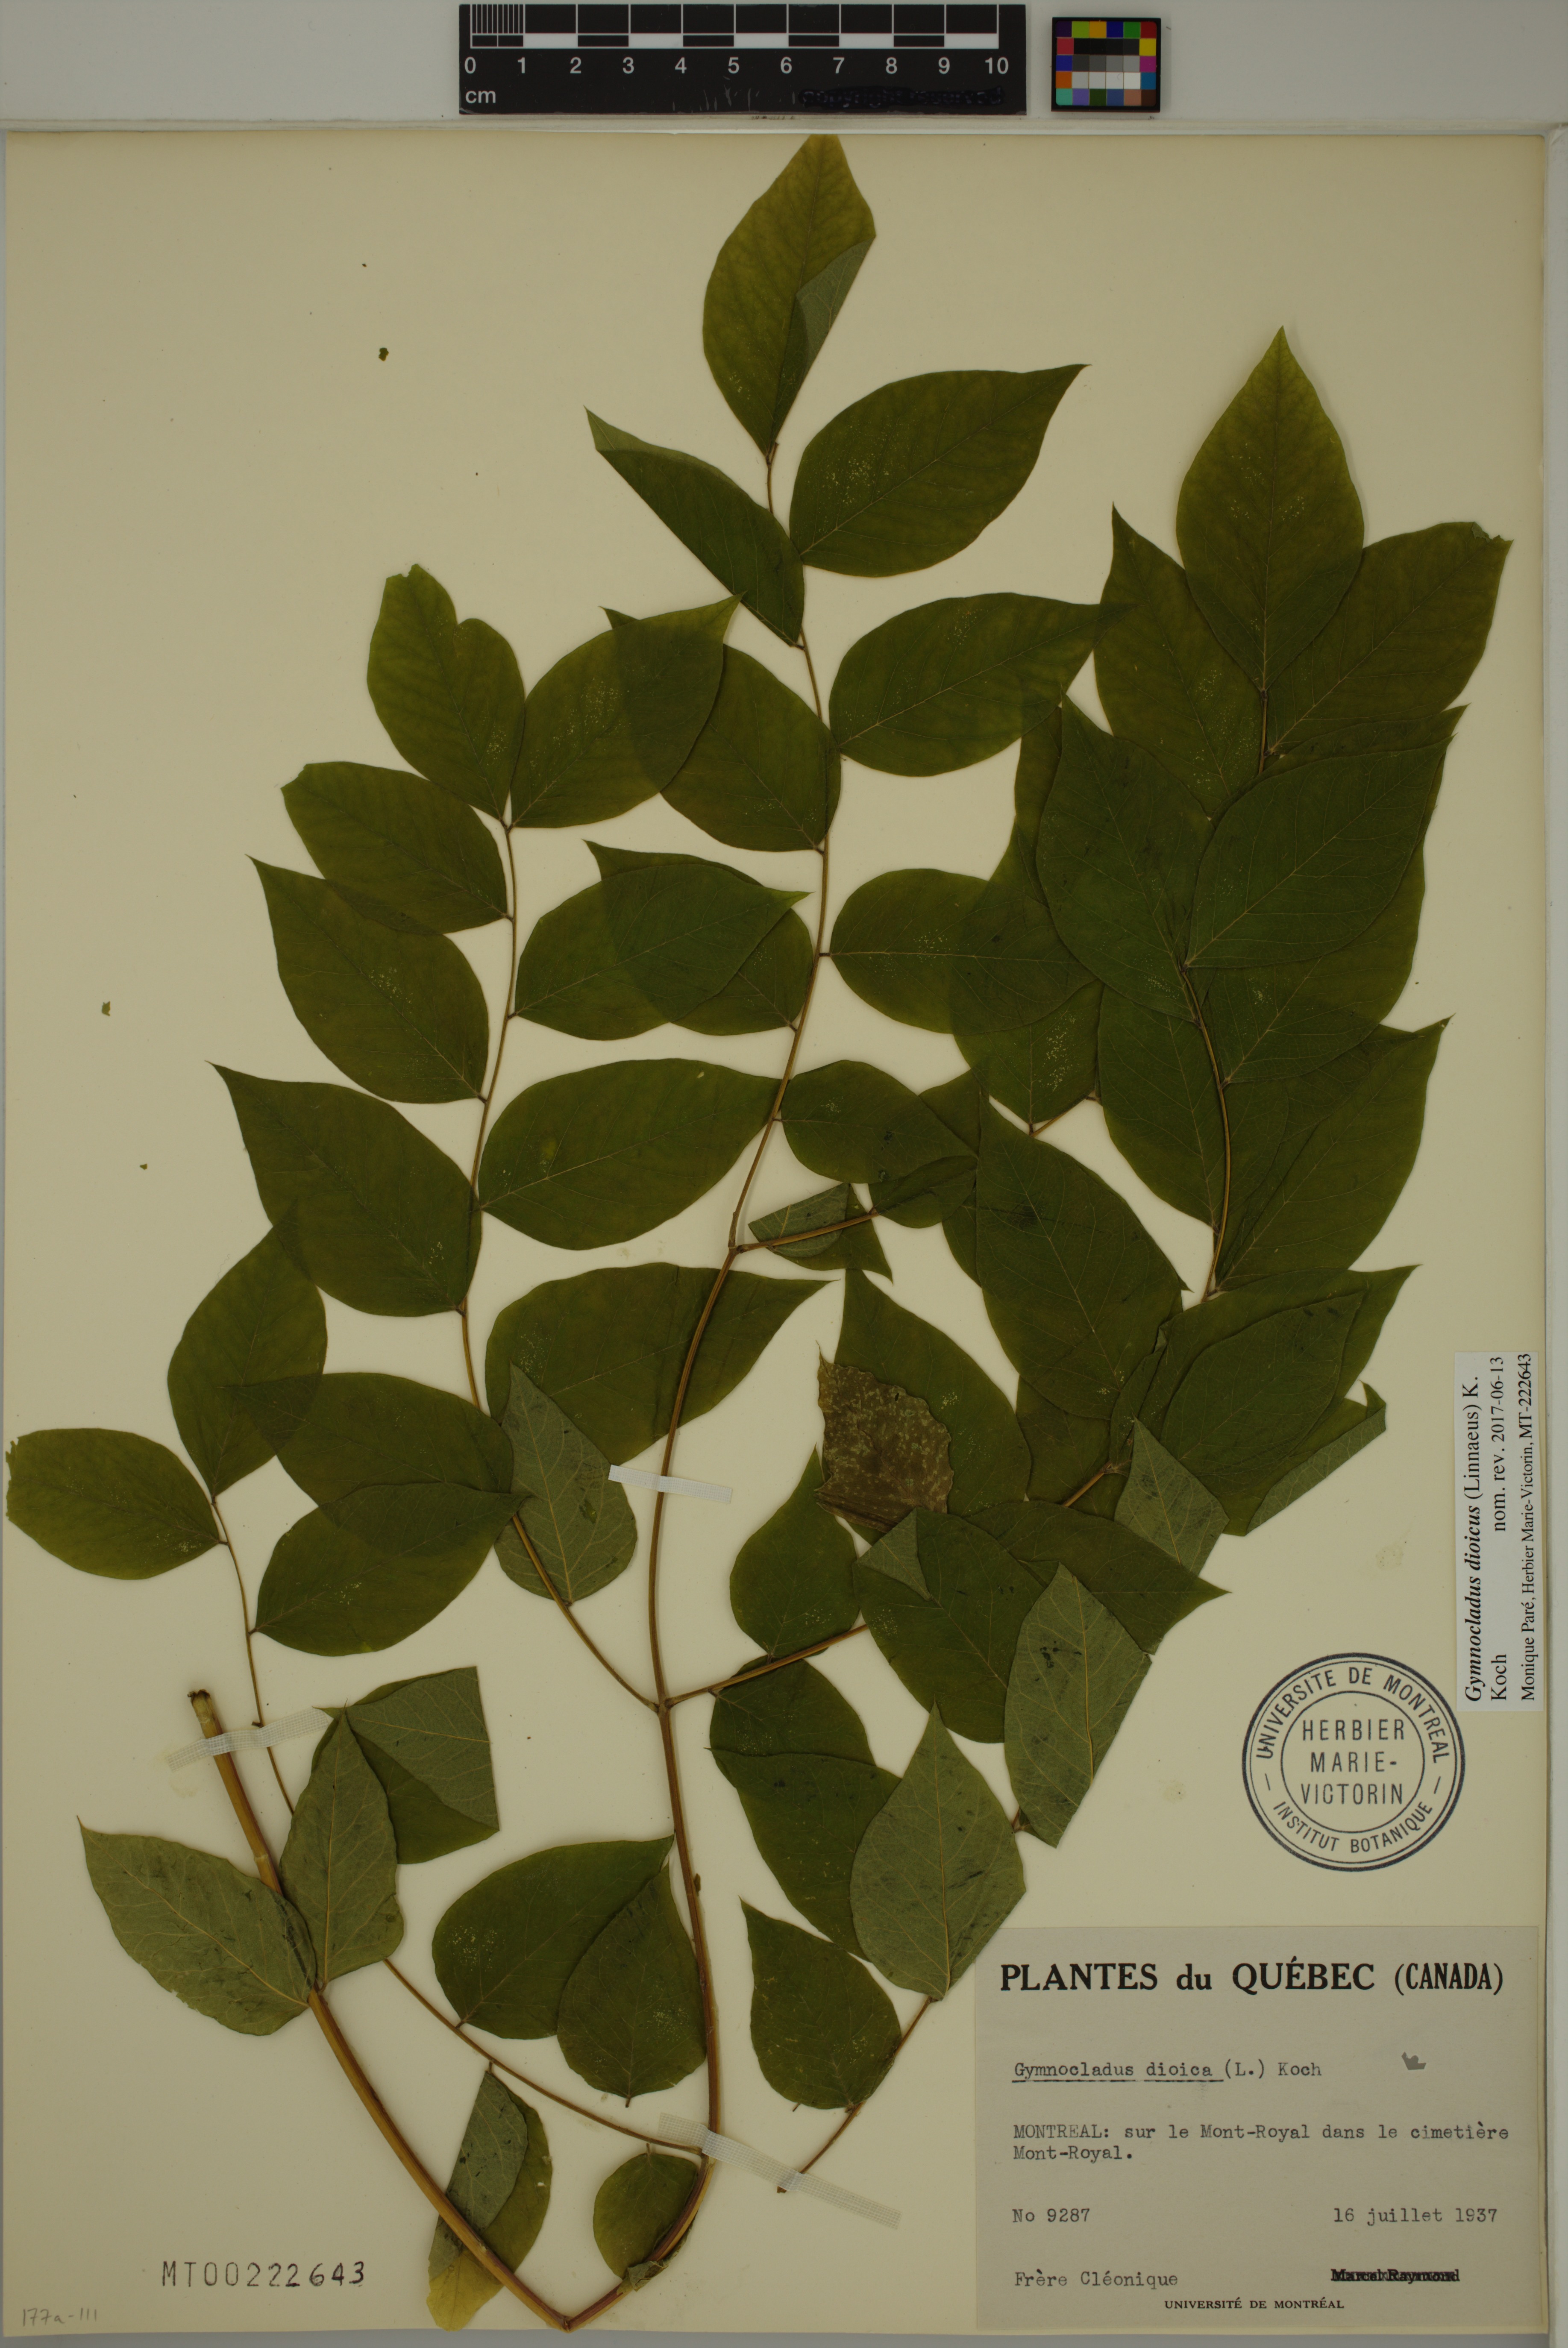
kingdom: Plantae
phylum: Tracheophyta
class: Magnoliopsida
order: Fabales
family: Fabaceae
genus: Gymnocladus
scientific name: Gymnocladus dioicus
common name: Kentucky coffee-tree
